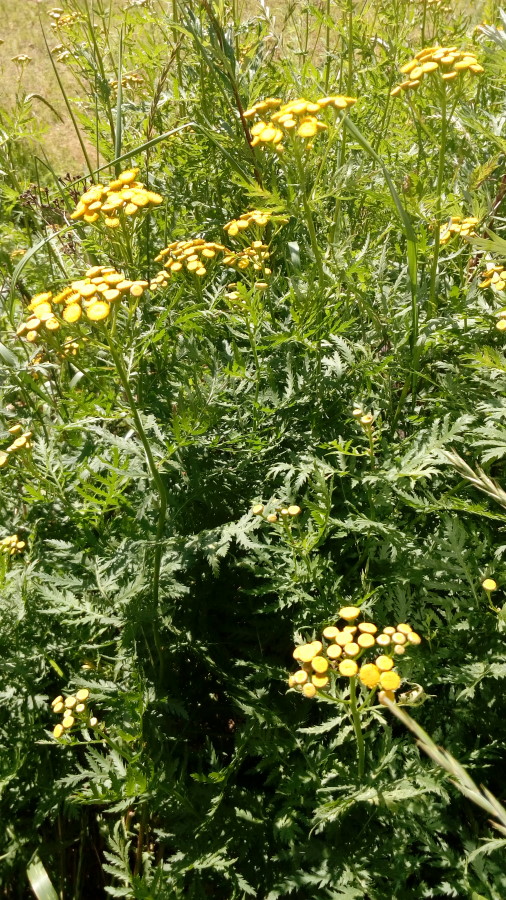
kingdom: Plantae
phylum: Tracheophyta
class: Magnoliopsida
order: Asterales
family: Asteraceae
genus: Tanacetum
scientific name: Tanacetum vulgare
